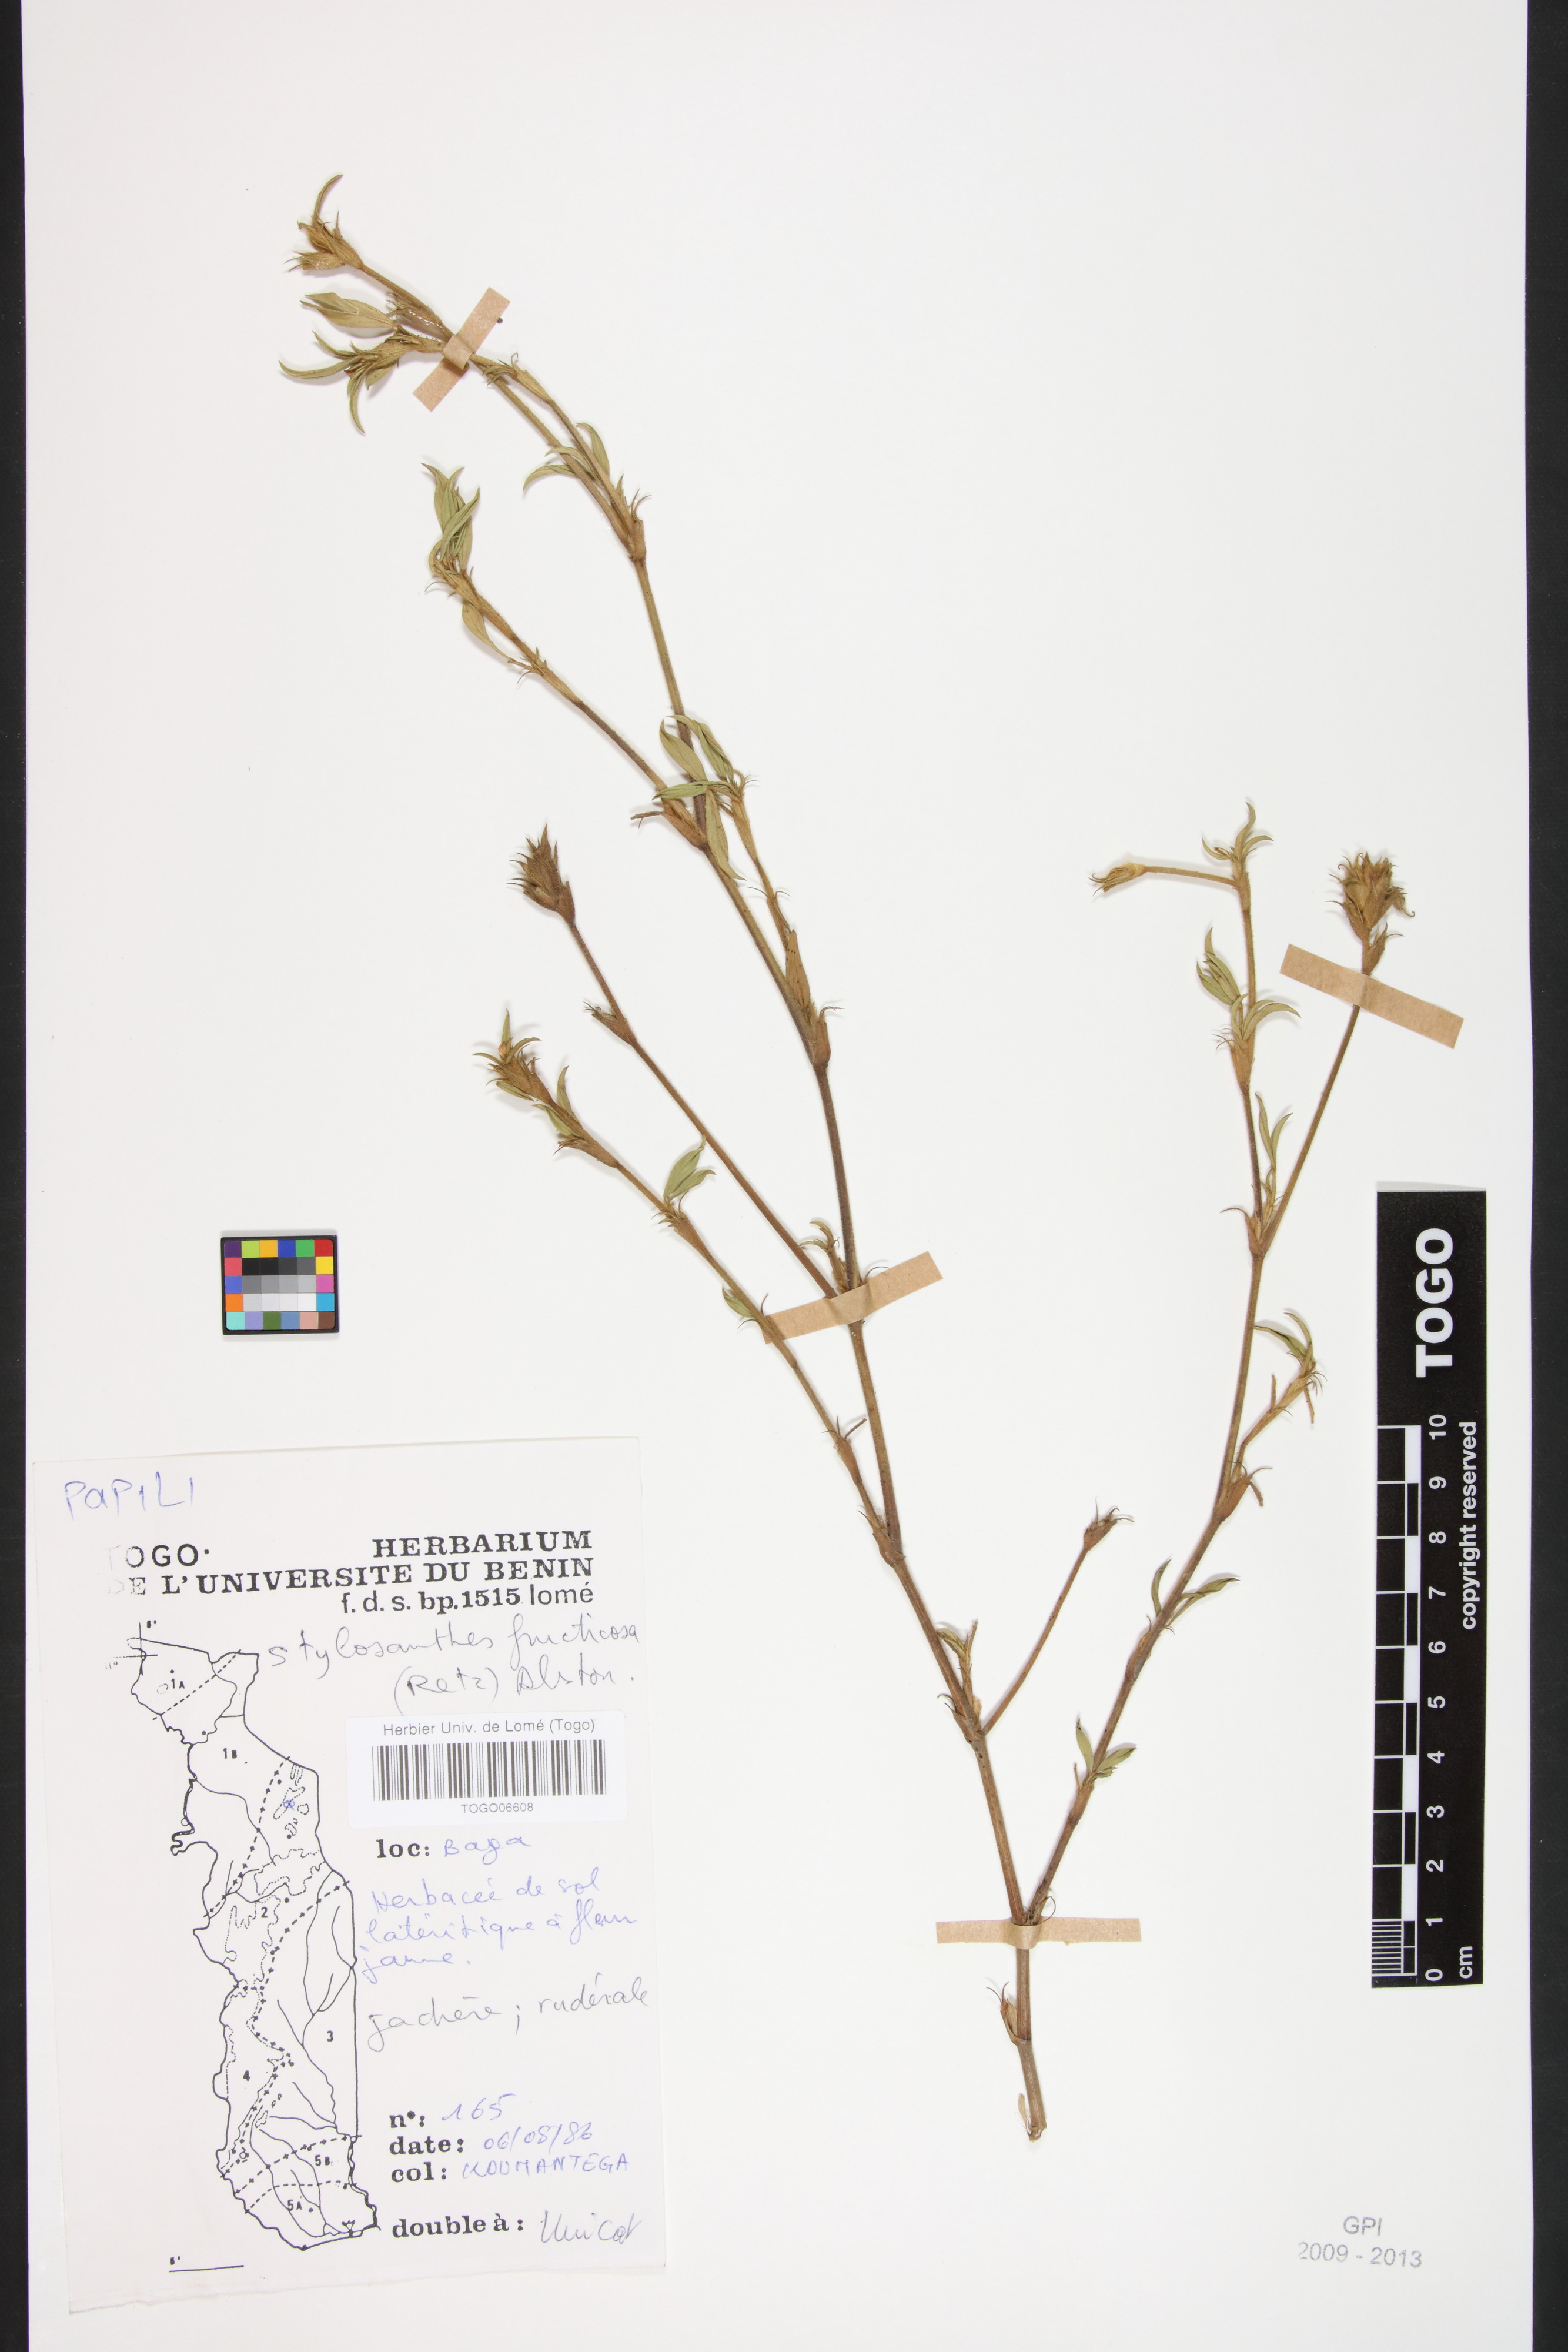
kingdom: Plantae
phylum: Tracheophyta
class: Magnoliopsida
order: Fabales
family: Fabaceae
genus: Stylosanthes
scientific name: Stylosanthes fruticosa
